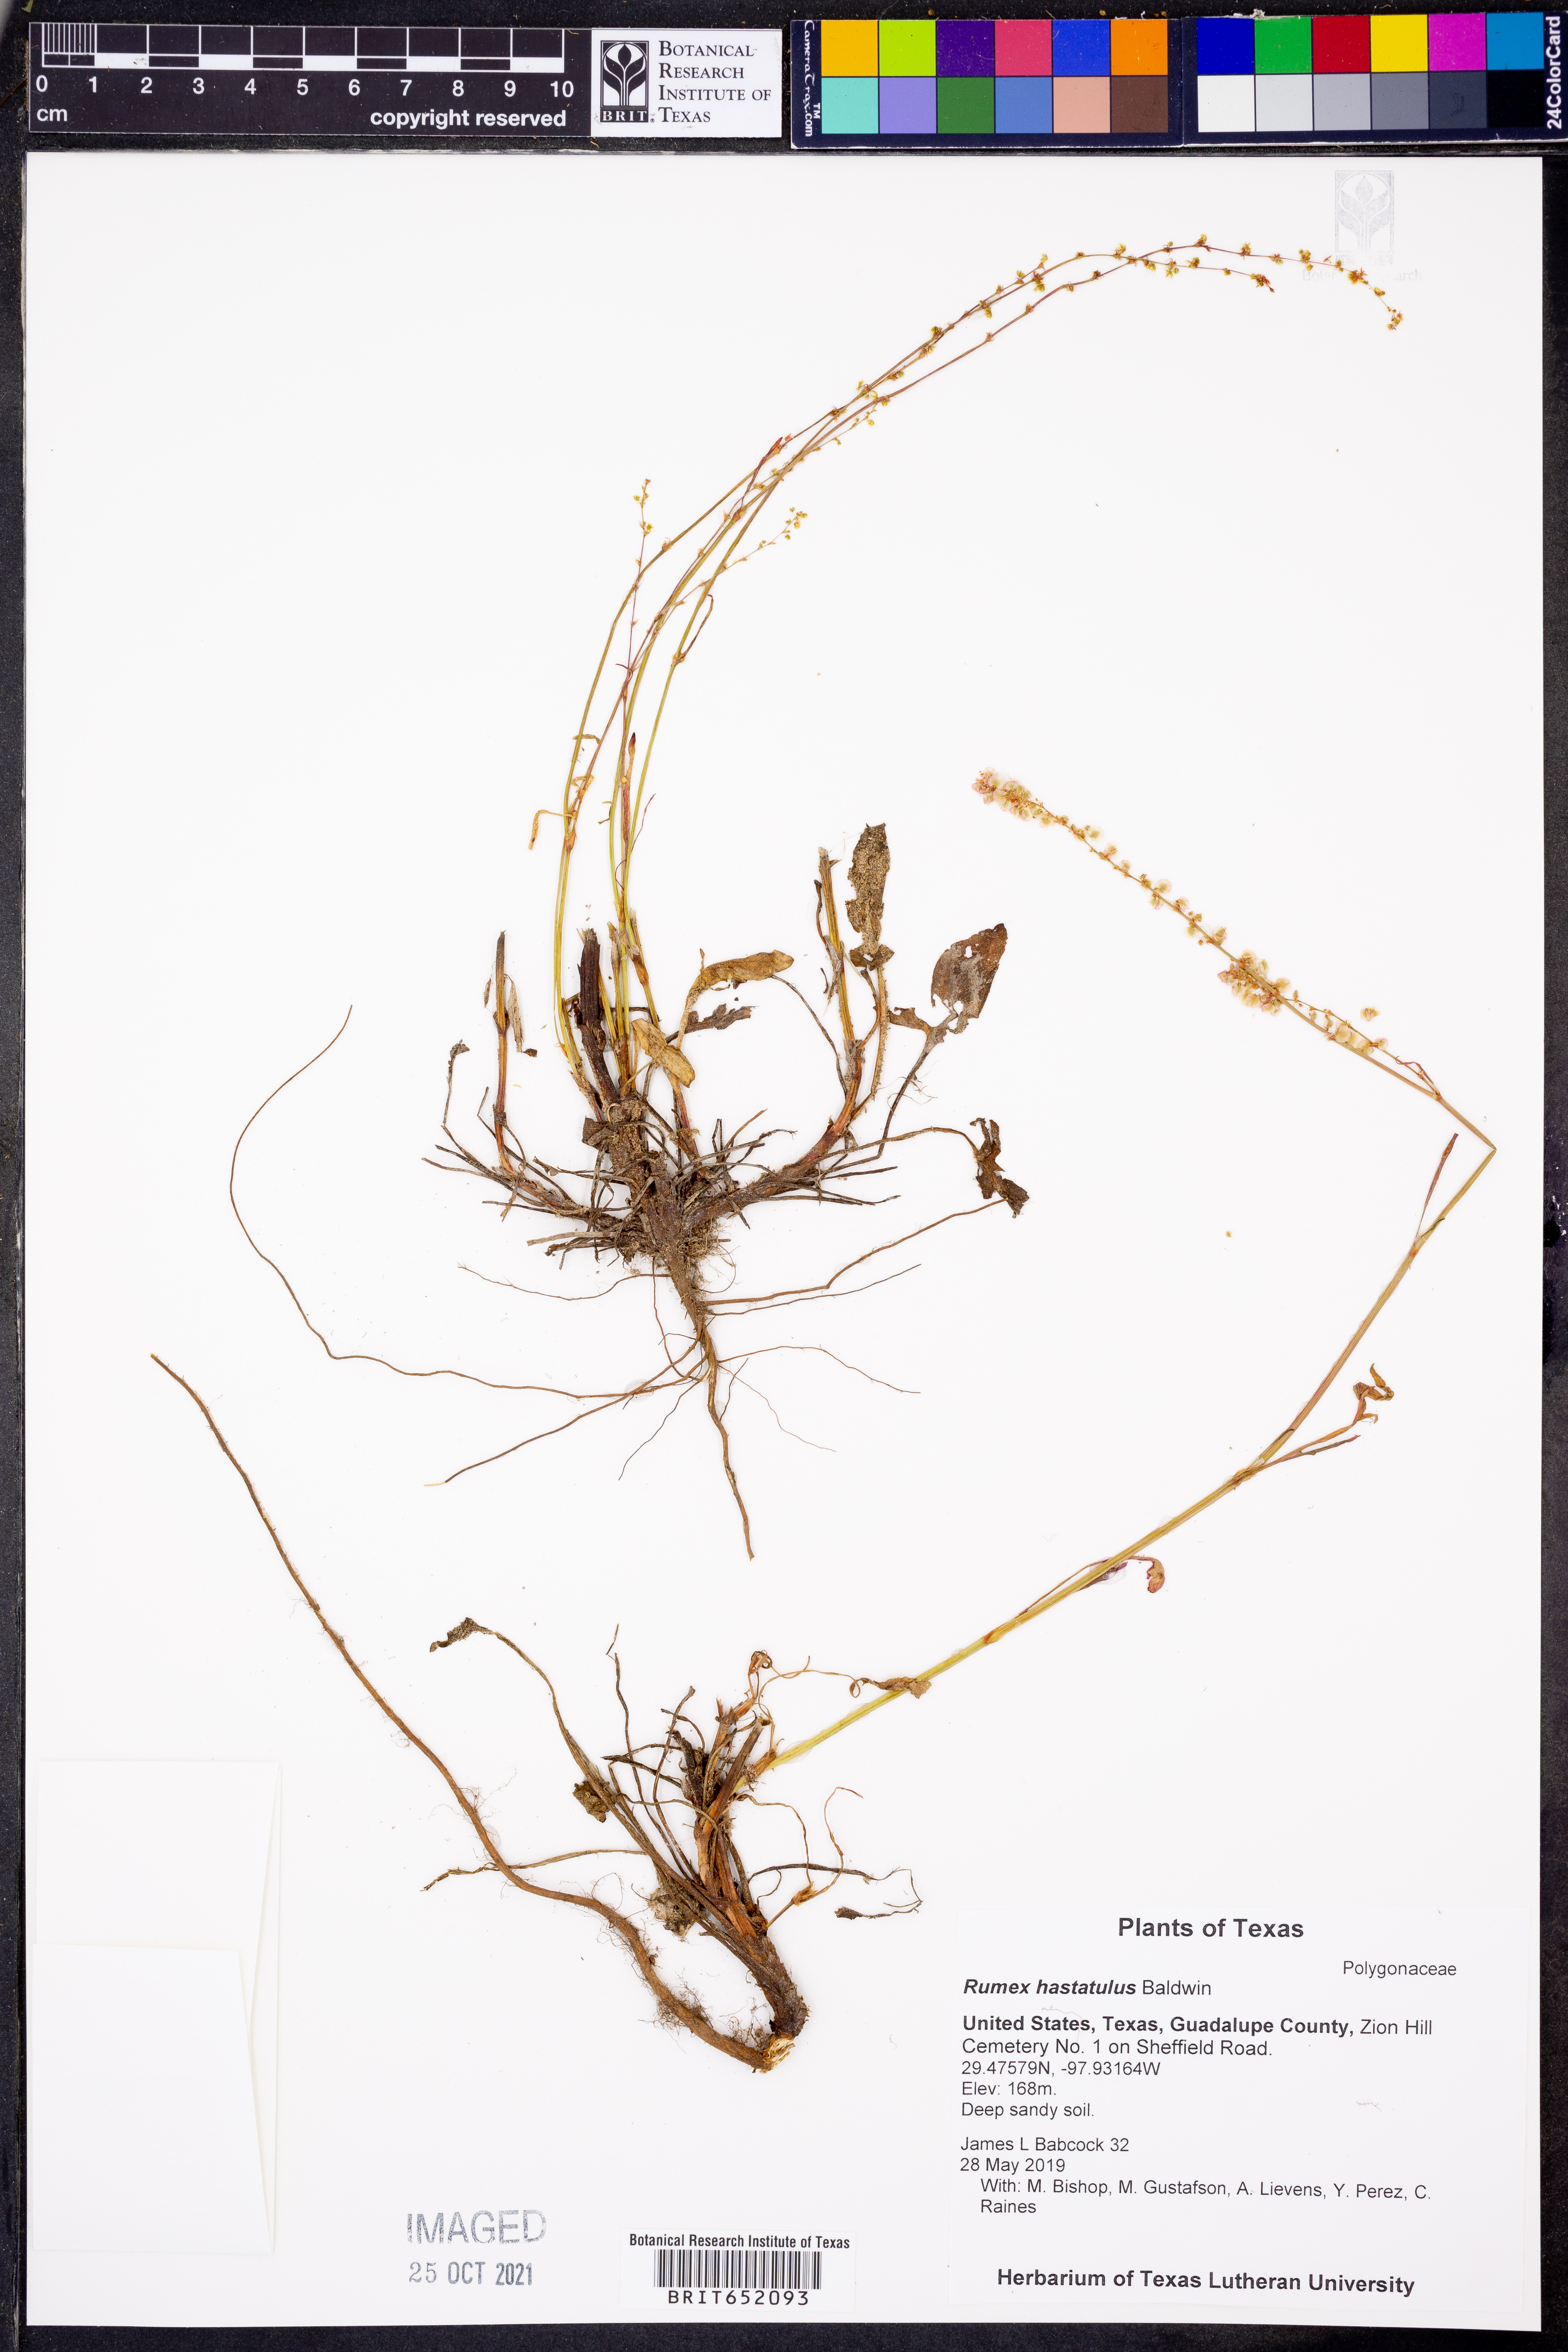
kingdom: Plantae
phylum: Tracheophyta
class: Magnoliopsida
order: Caryophyllales
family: Polygonaceae
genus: Rumex
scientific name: Rumex hastatulus
